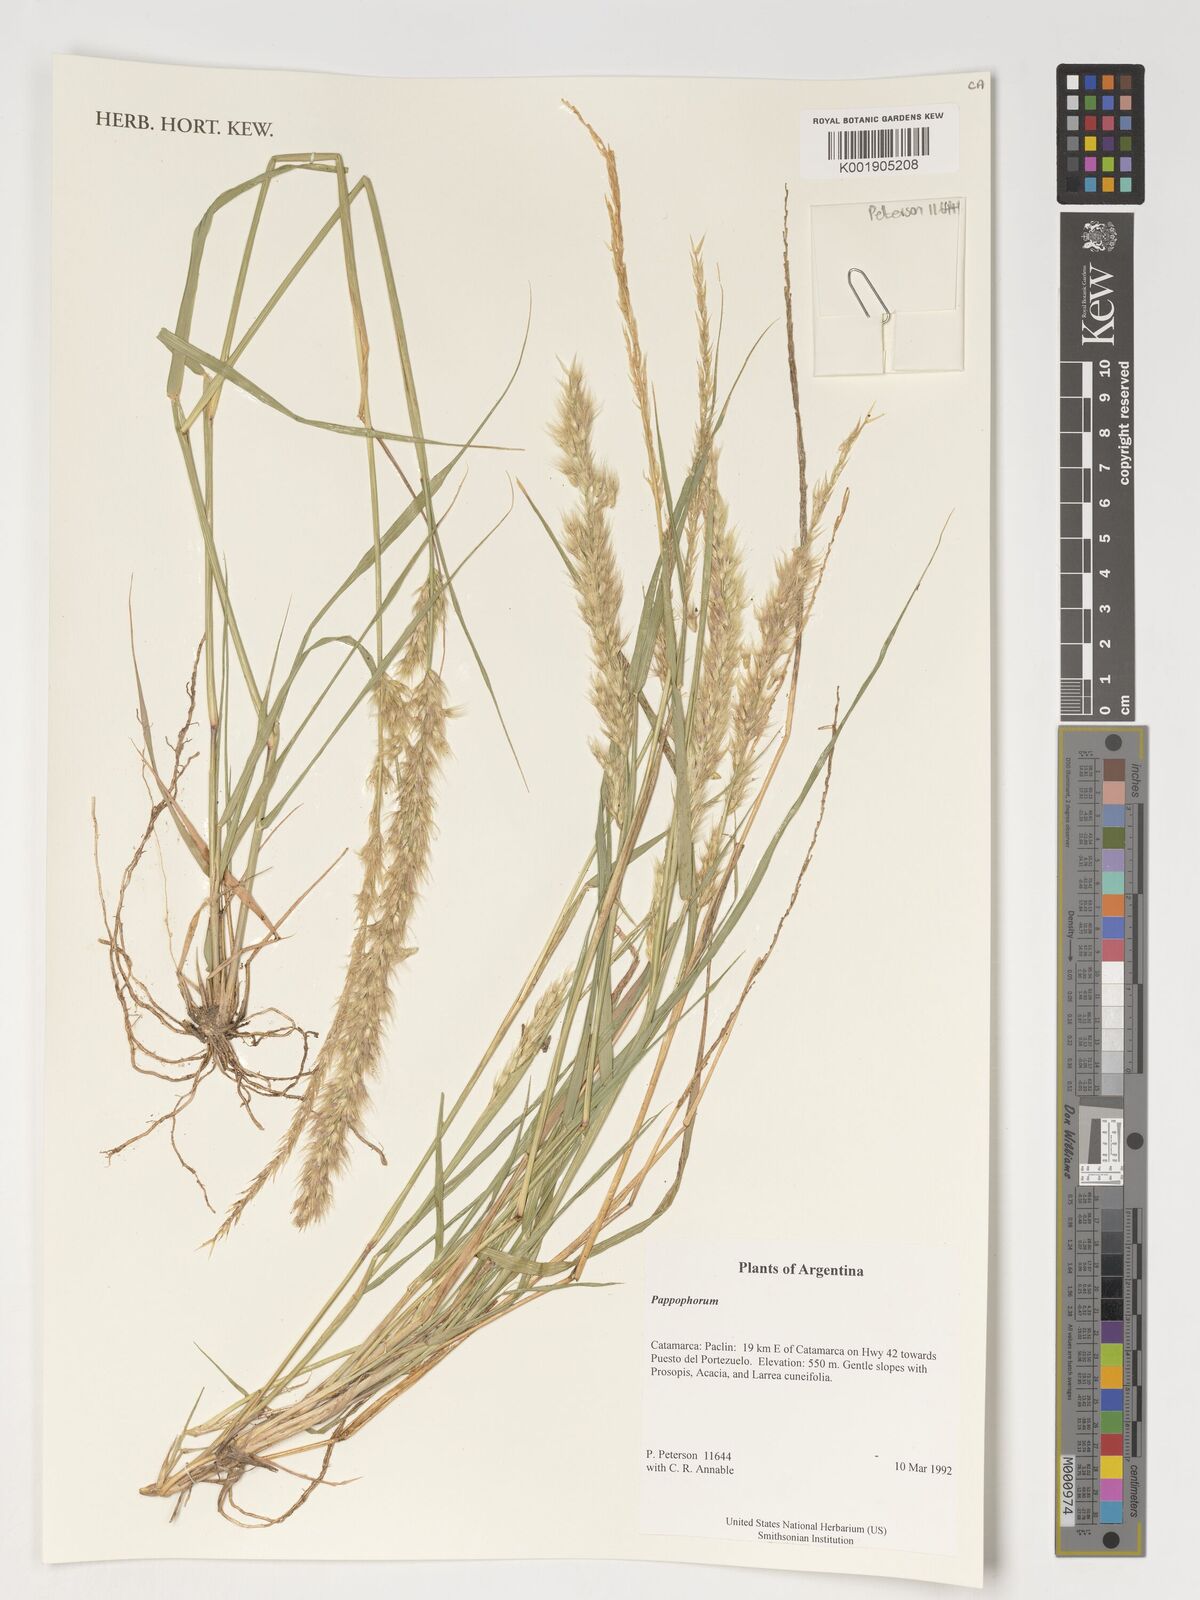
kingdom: Plantae
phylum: Tracheophyta
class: Liliopsida
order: Poales
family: Poaceae
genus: Pappophorum
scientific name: Pappophorum
